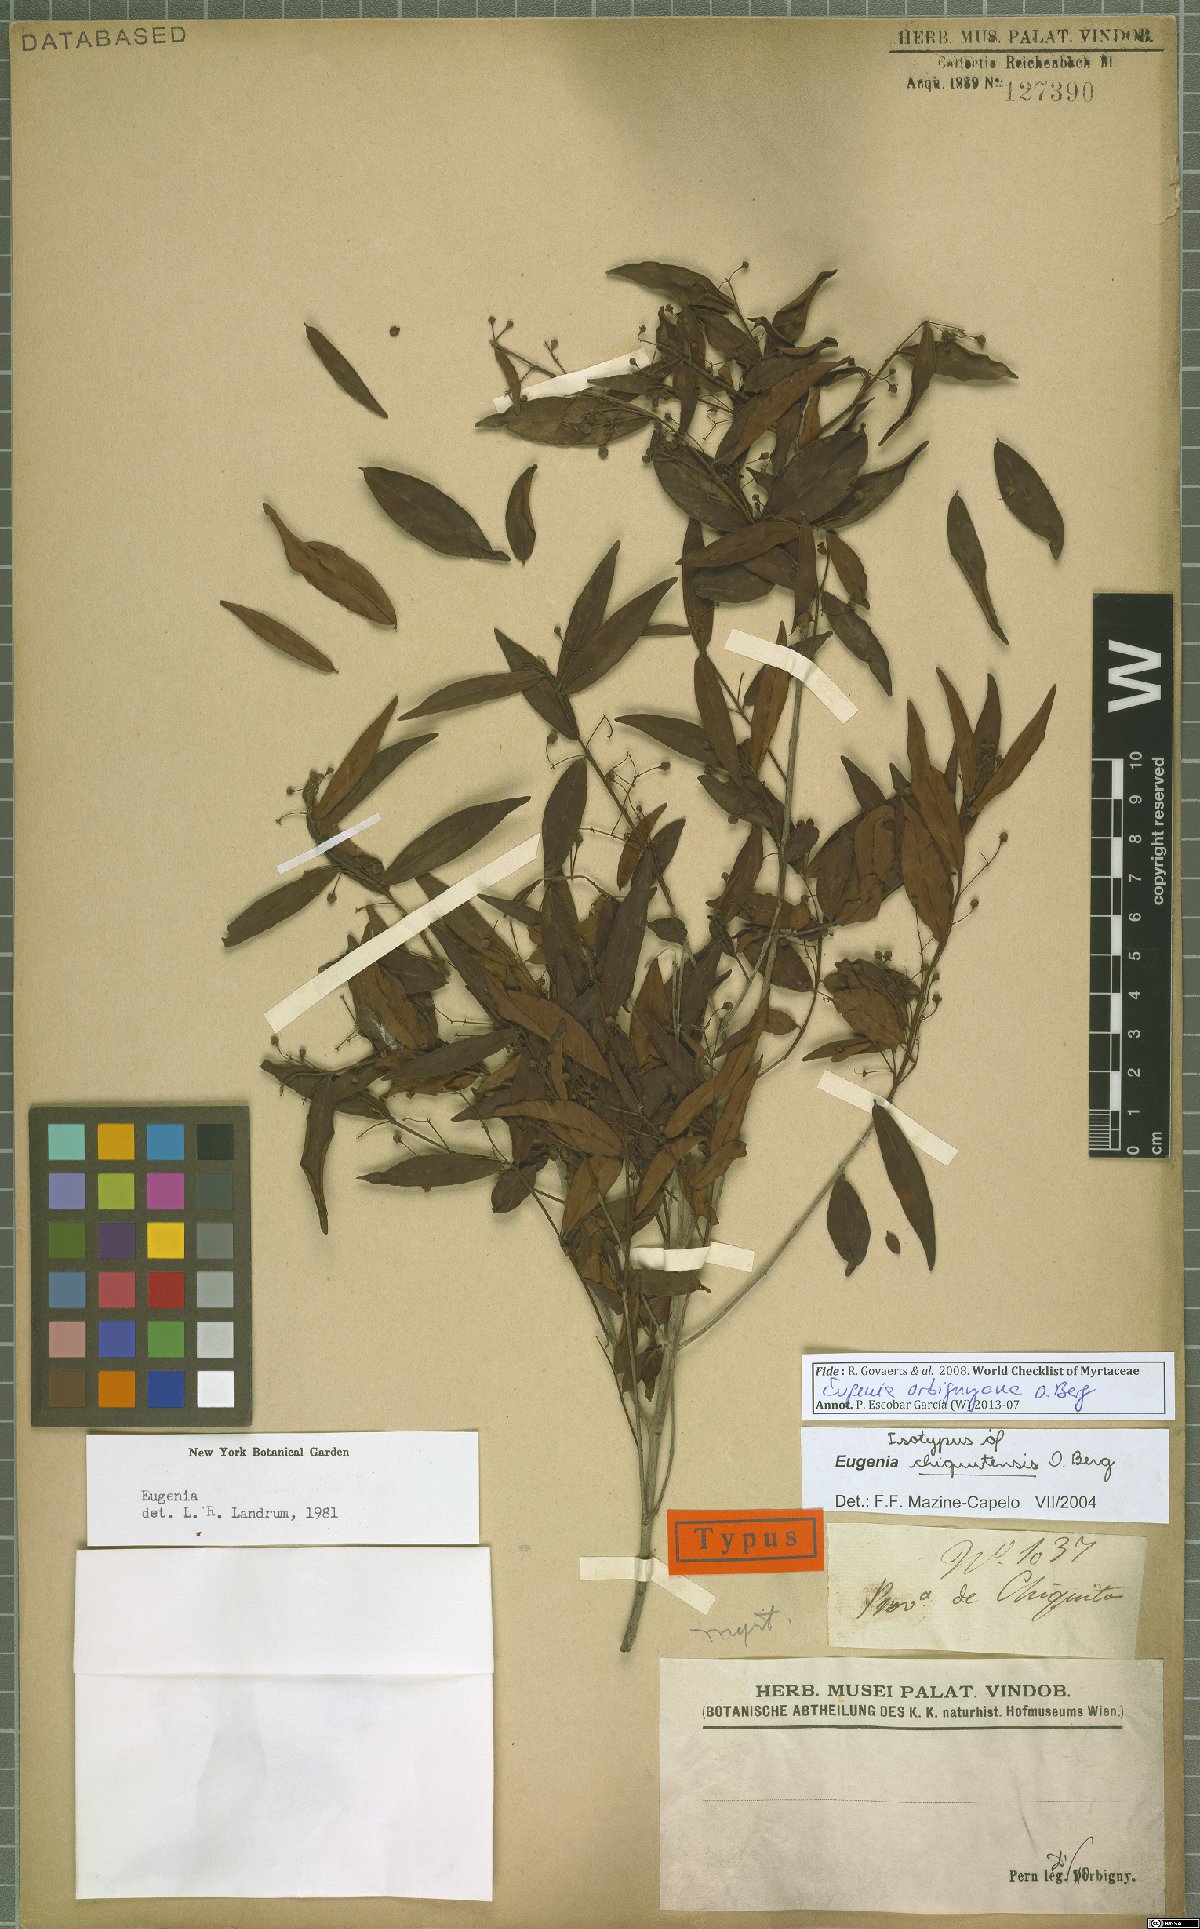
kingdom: Plantae
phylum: Tracheophyta
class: Magnoliopsida
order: Myrtales
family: Myrtaceae
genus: Eugenia
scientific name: Eugenia orbignyana
